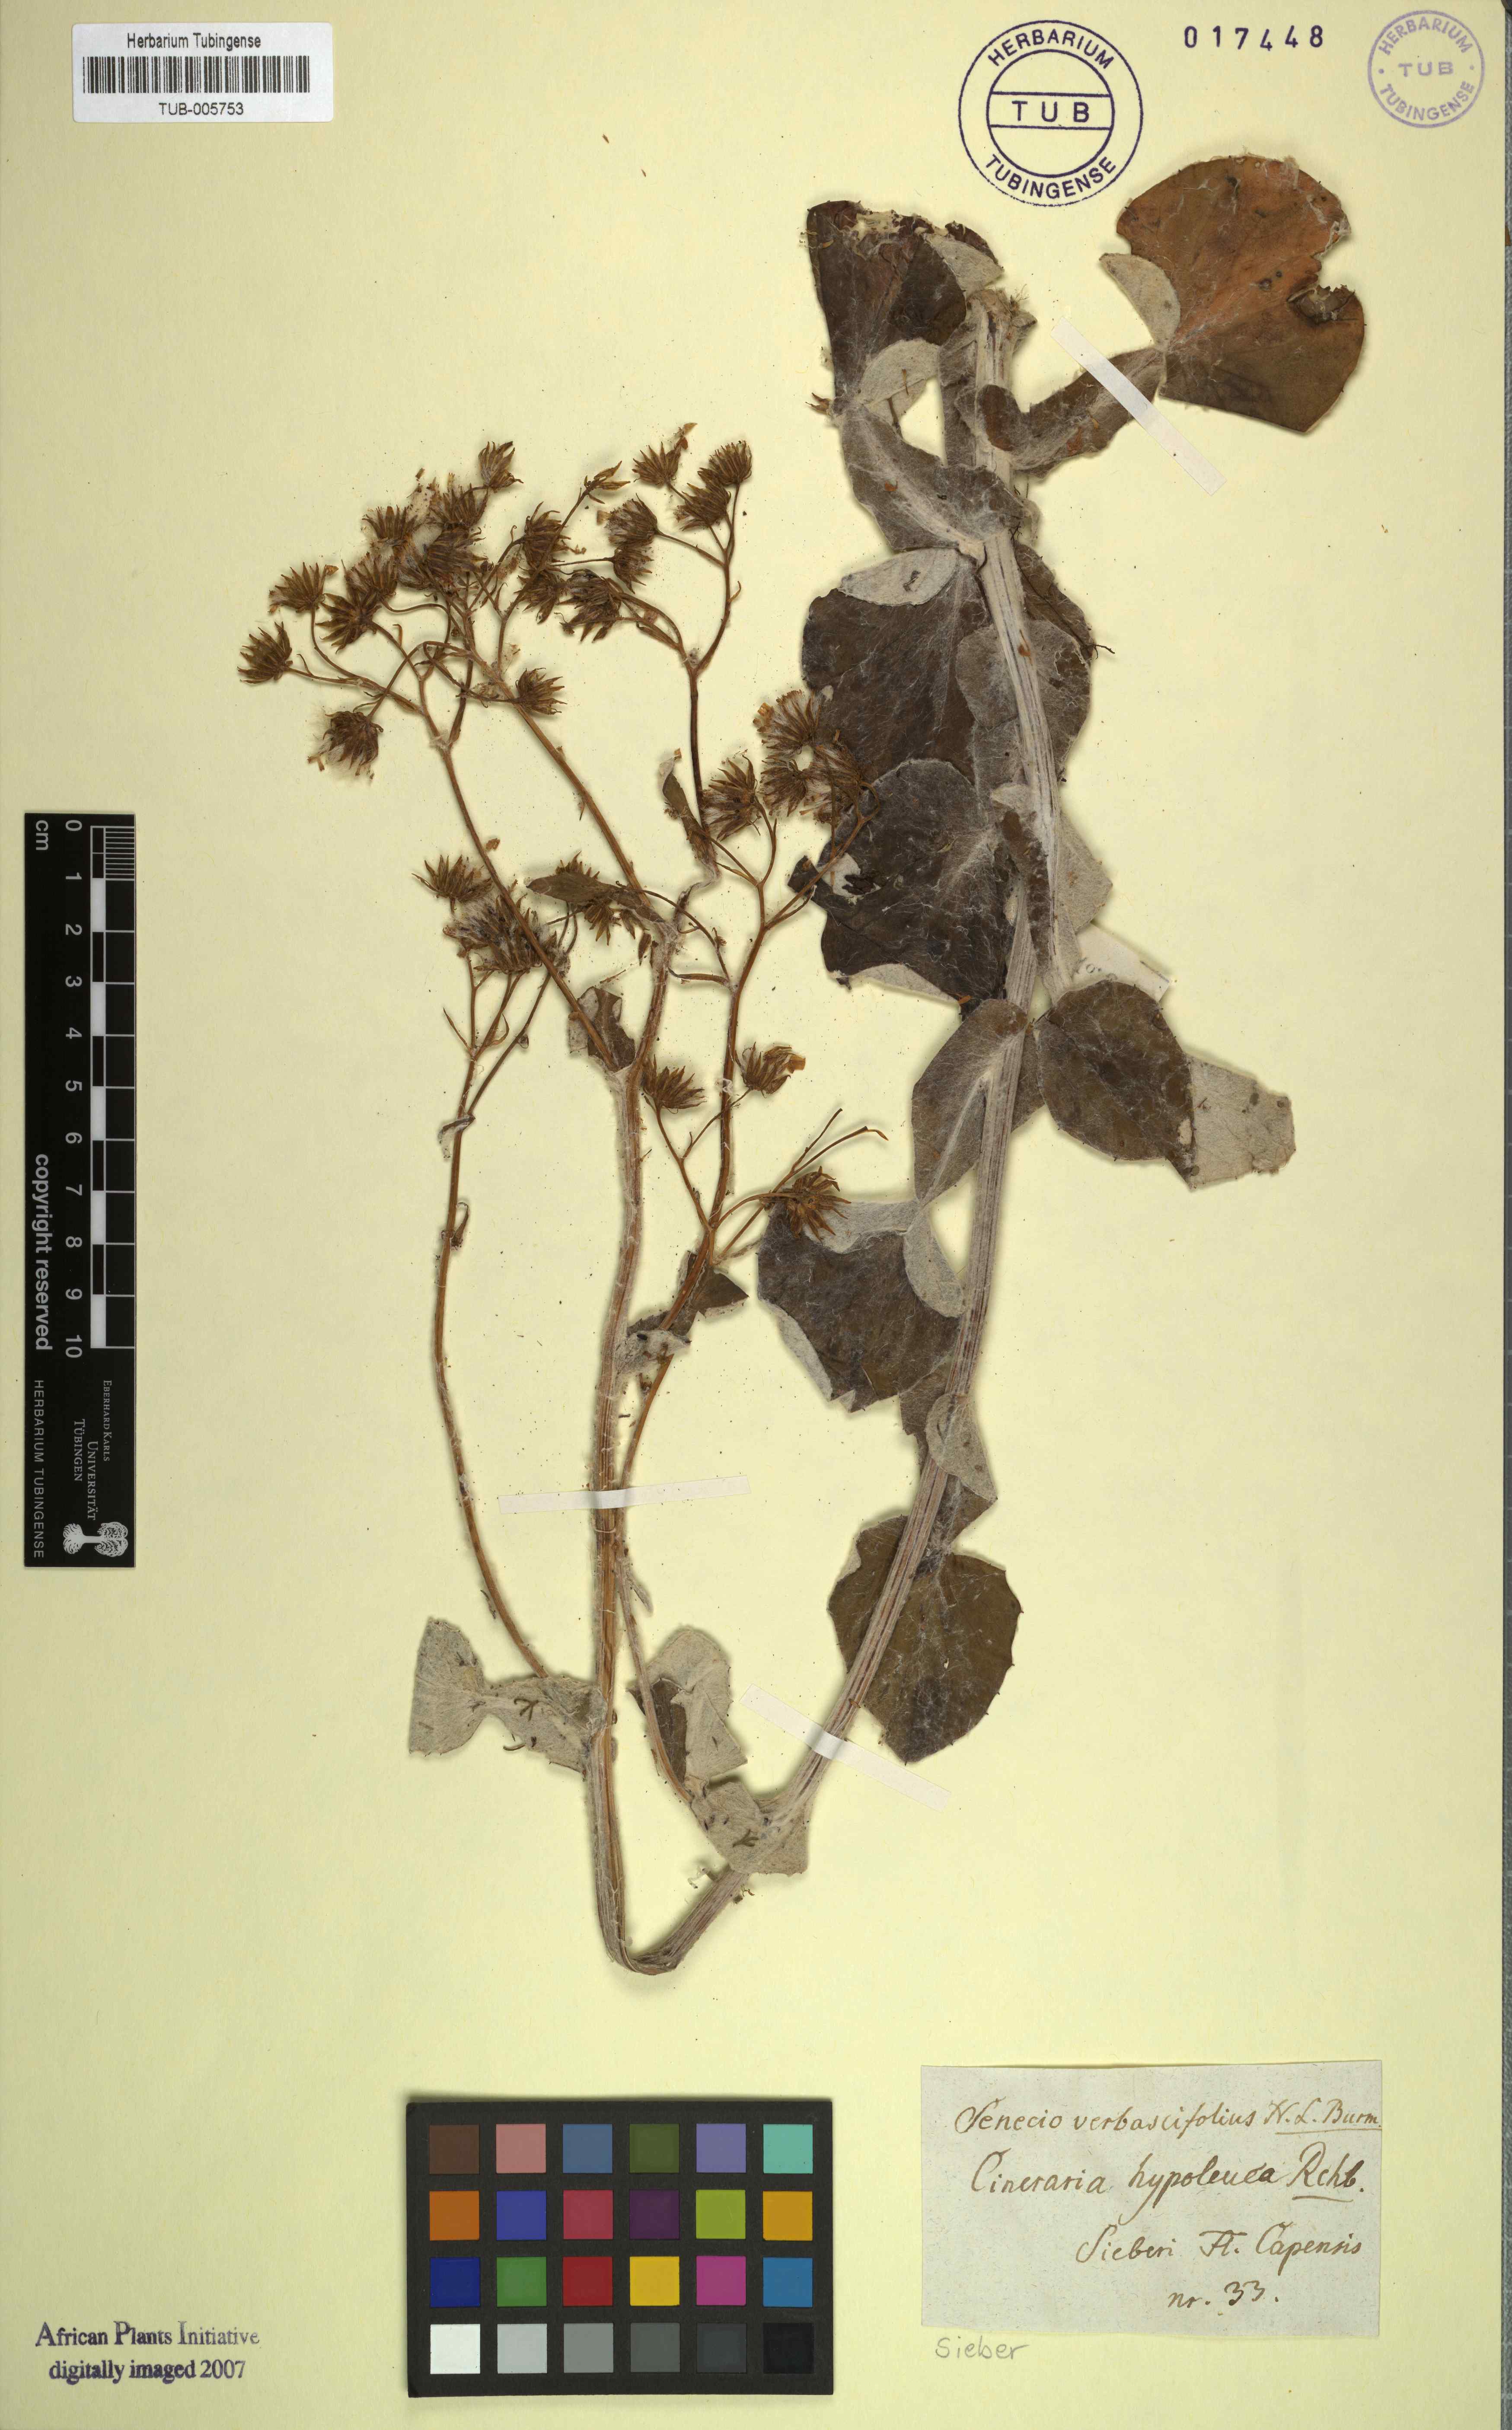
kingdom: Plantae
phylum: Tracheophyta
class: Magnoliopsida
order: Asterales
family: Asteraceae
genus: Senecio
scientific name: Senecio verbascifolius
